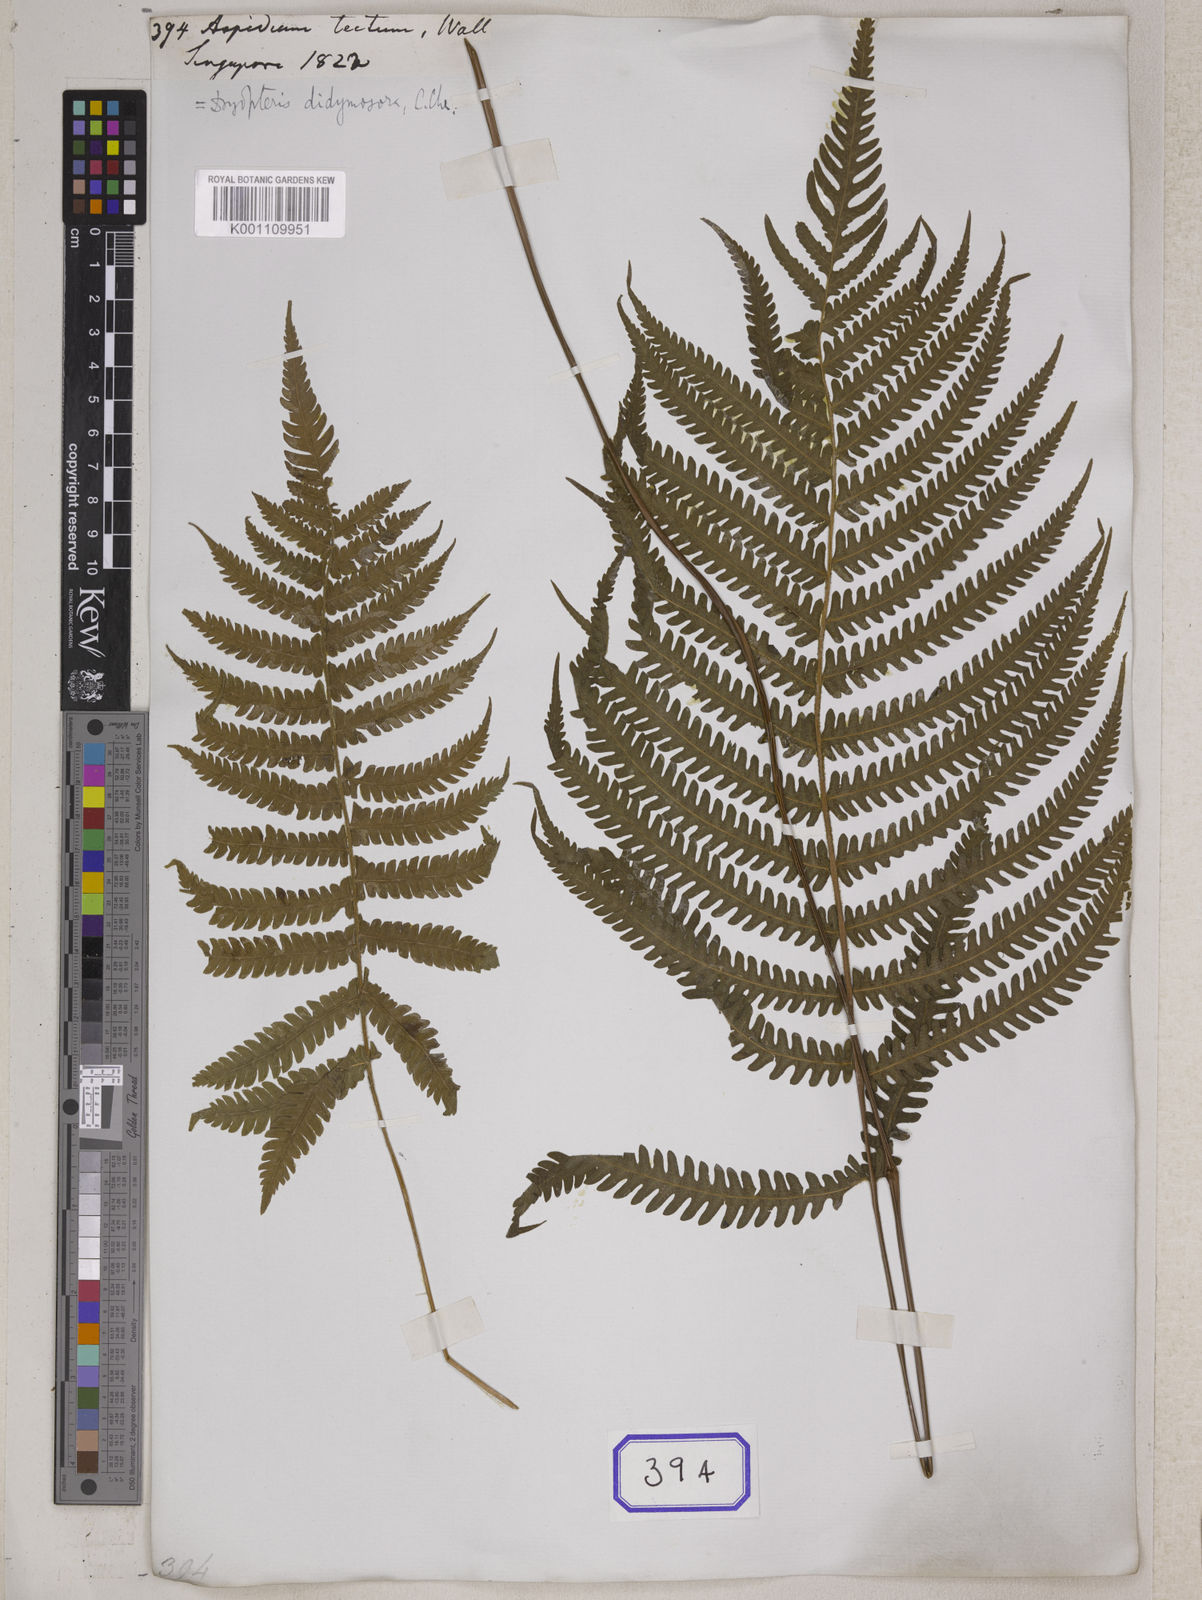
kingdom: Plantae
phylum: Tracheophyta
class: Polypodiopsida
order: Polypodiales
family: Thelypteridaceae
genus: Christella
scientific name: Christella parasitica
